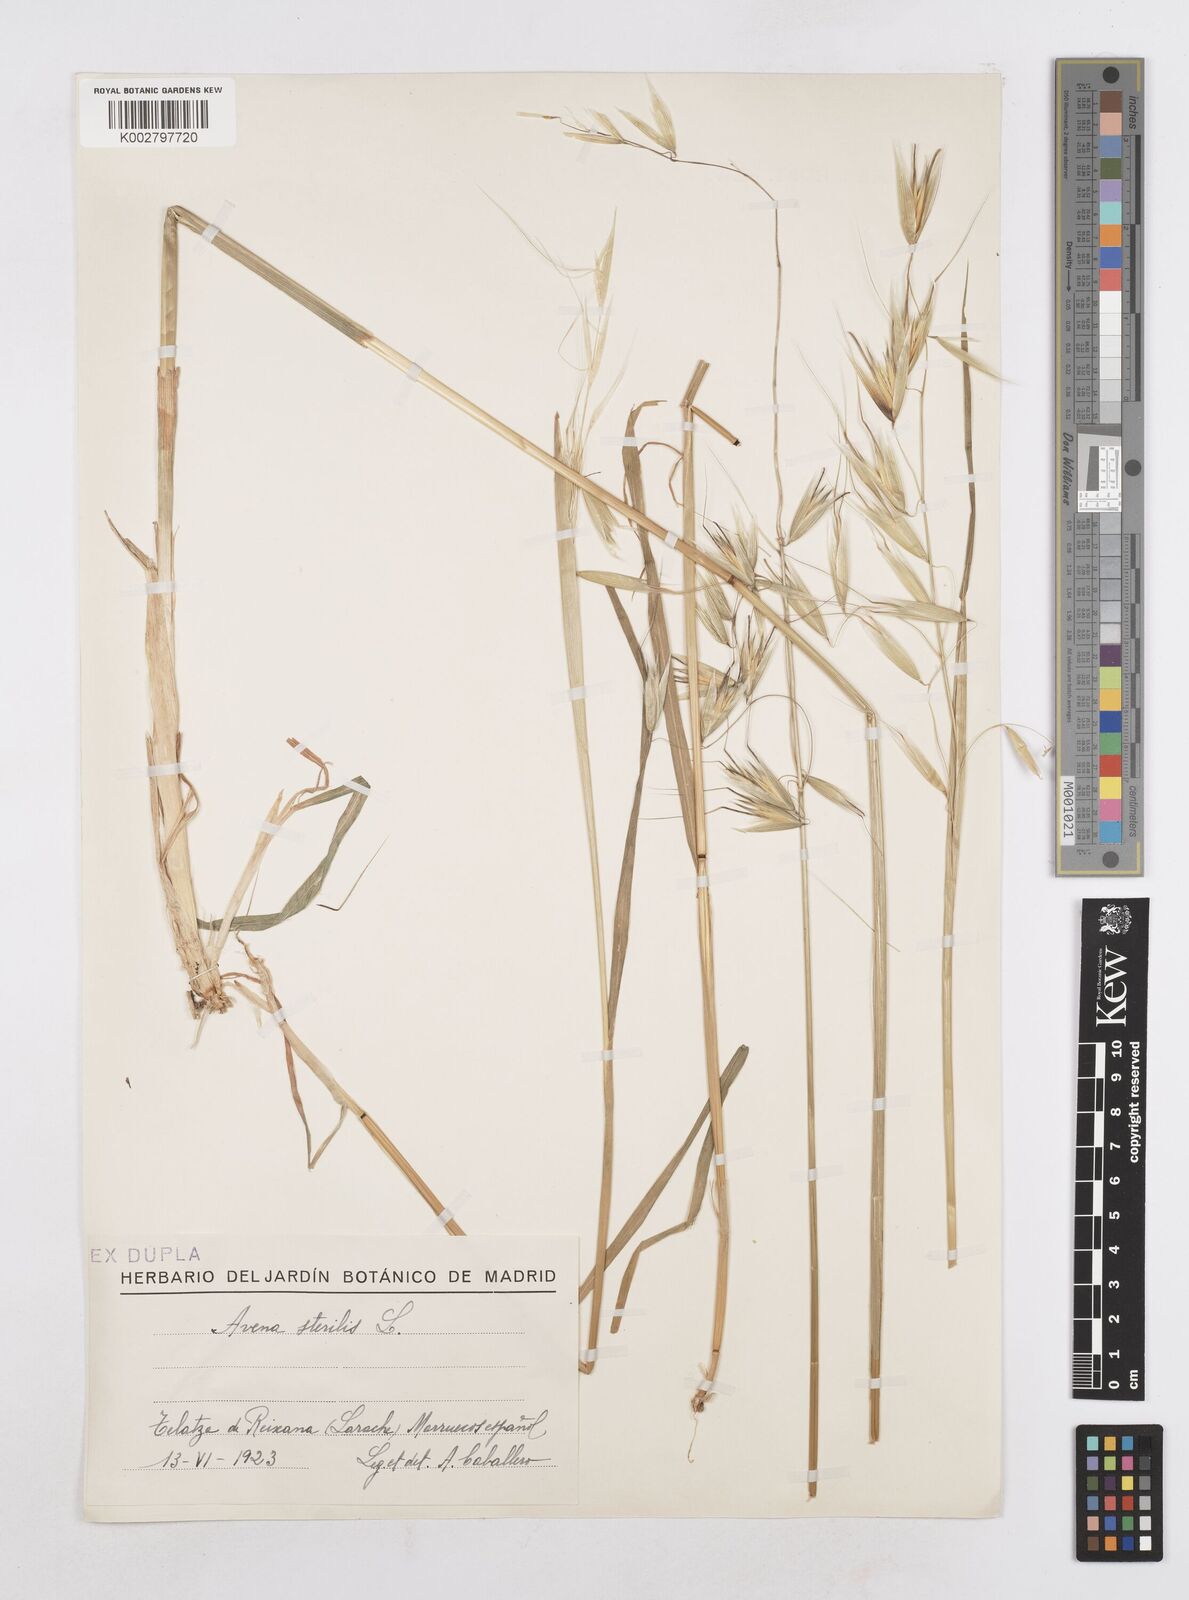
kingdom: Plantae
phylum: Tracheophyta
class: Liliopsida
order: Poales
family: Poaceae
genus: Avena
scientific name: Avena sterilis
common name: Animated oat
